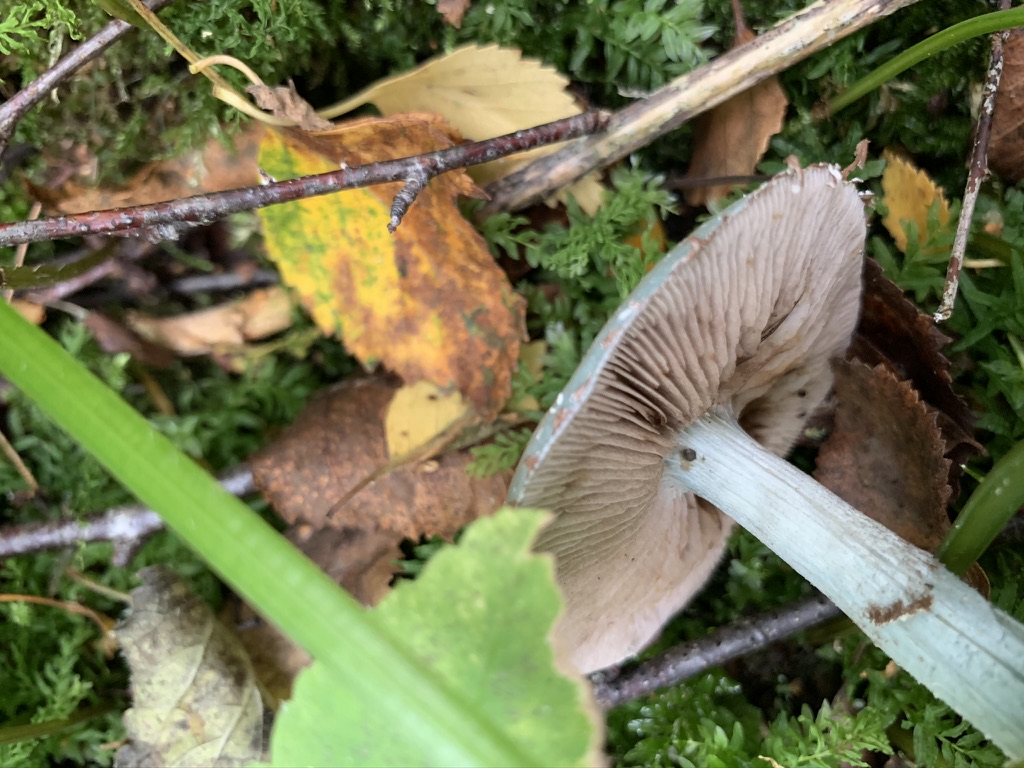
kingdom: Fungi
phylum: Basidiomycota
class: Agaricomycetes
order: Agaricales
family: Strophariaceae
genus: Stropharia
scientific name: Stropharia cyanea
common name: blågrøn bredblad
